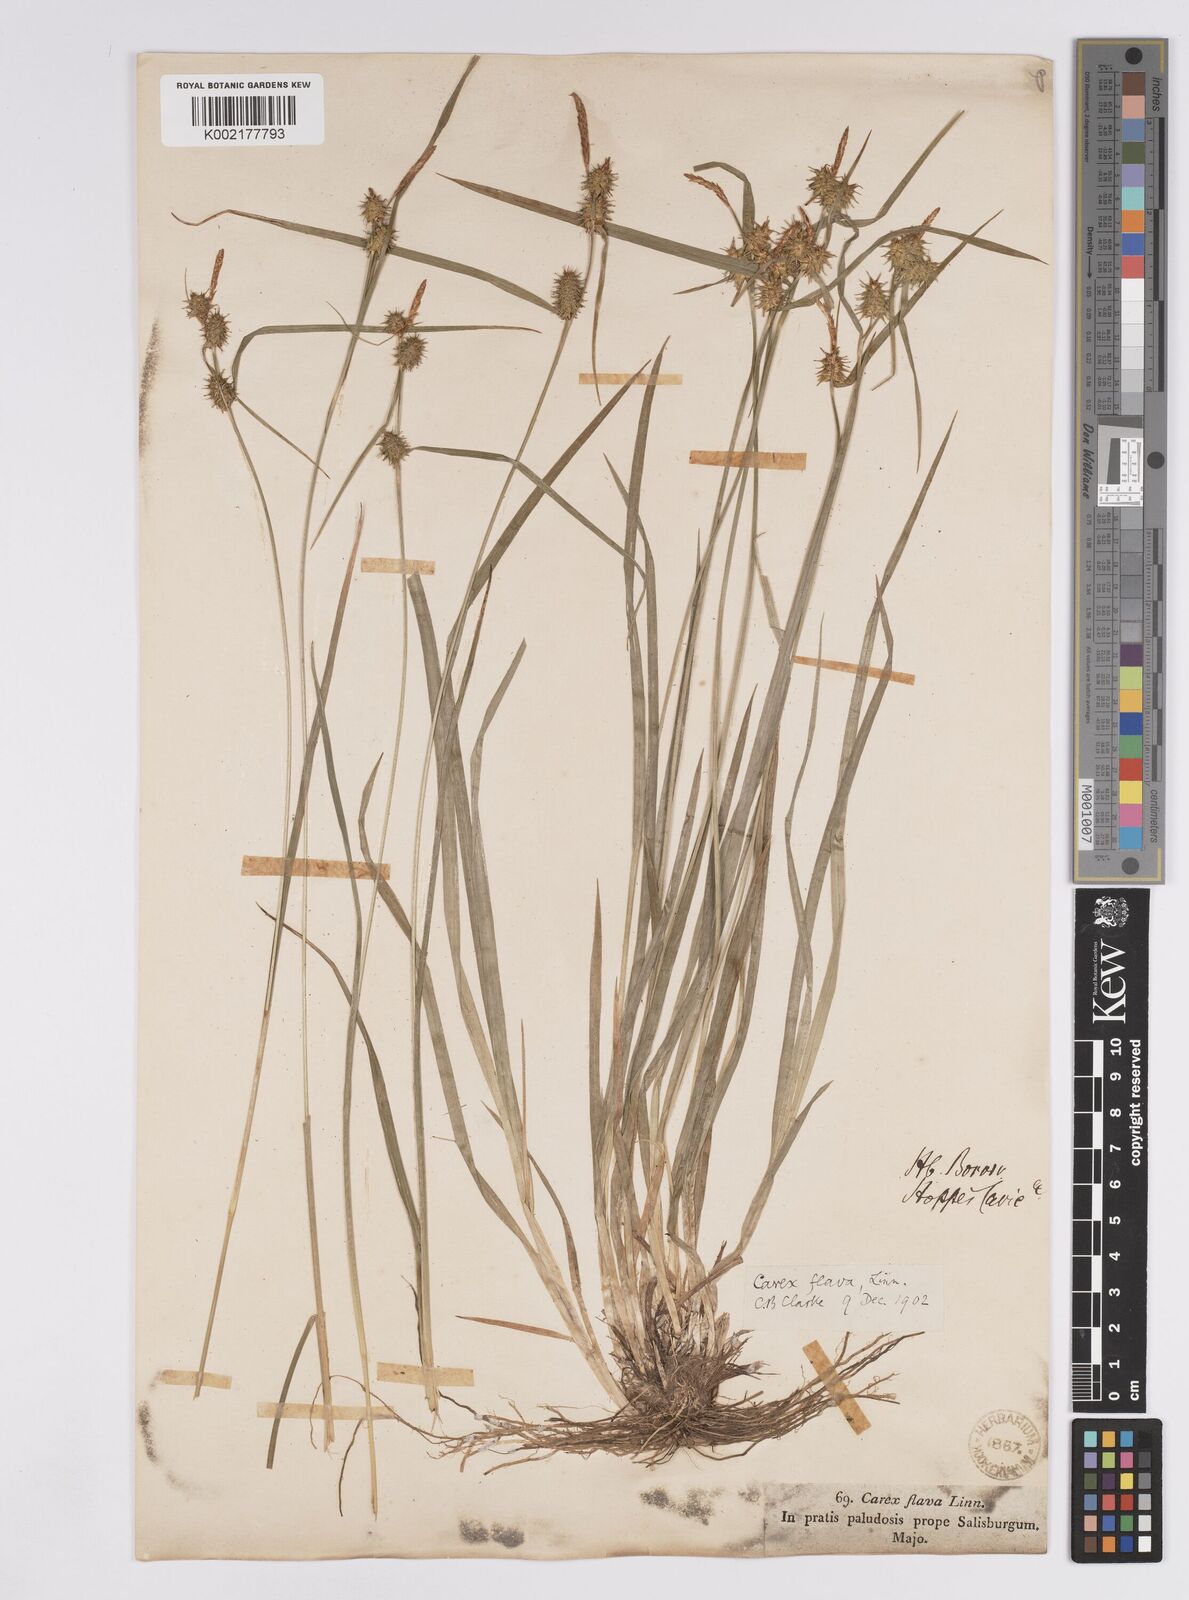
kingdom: Plantae
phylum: Tracheophyta
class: Liliopsida
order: Poales
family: Cyperaceae
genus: Carex
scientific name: Carex flava
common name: Large yellow-sedge
